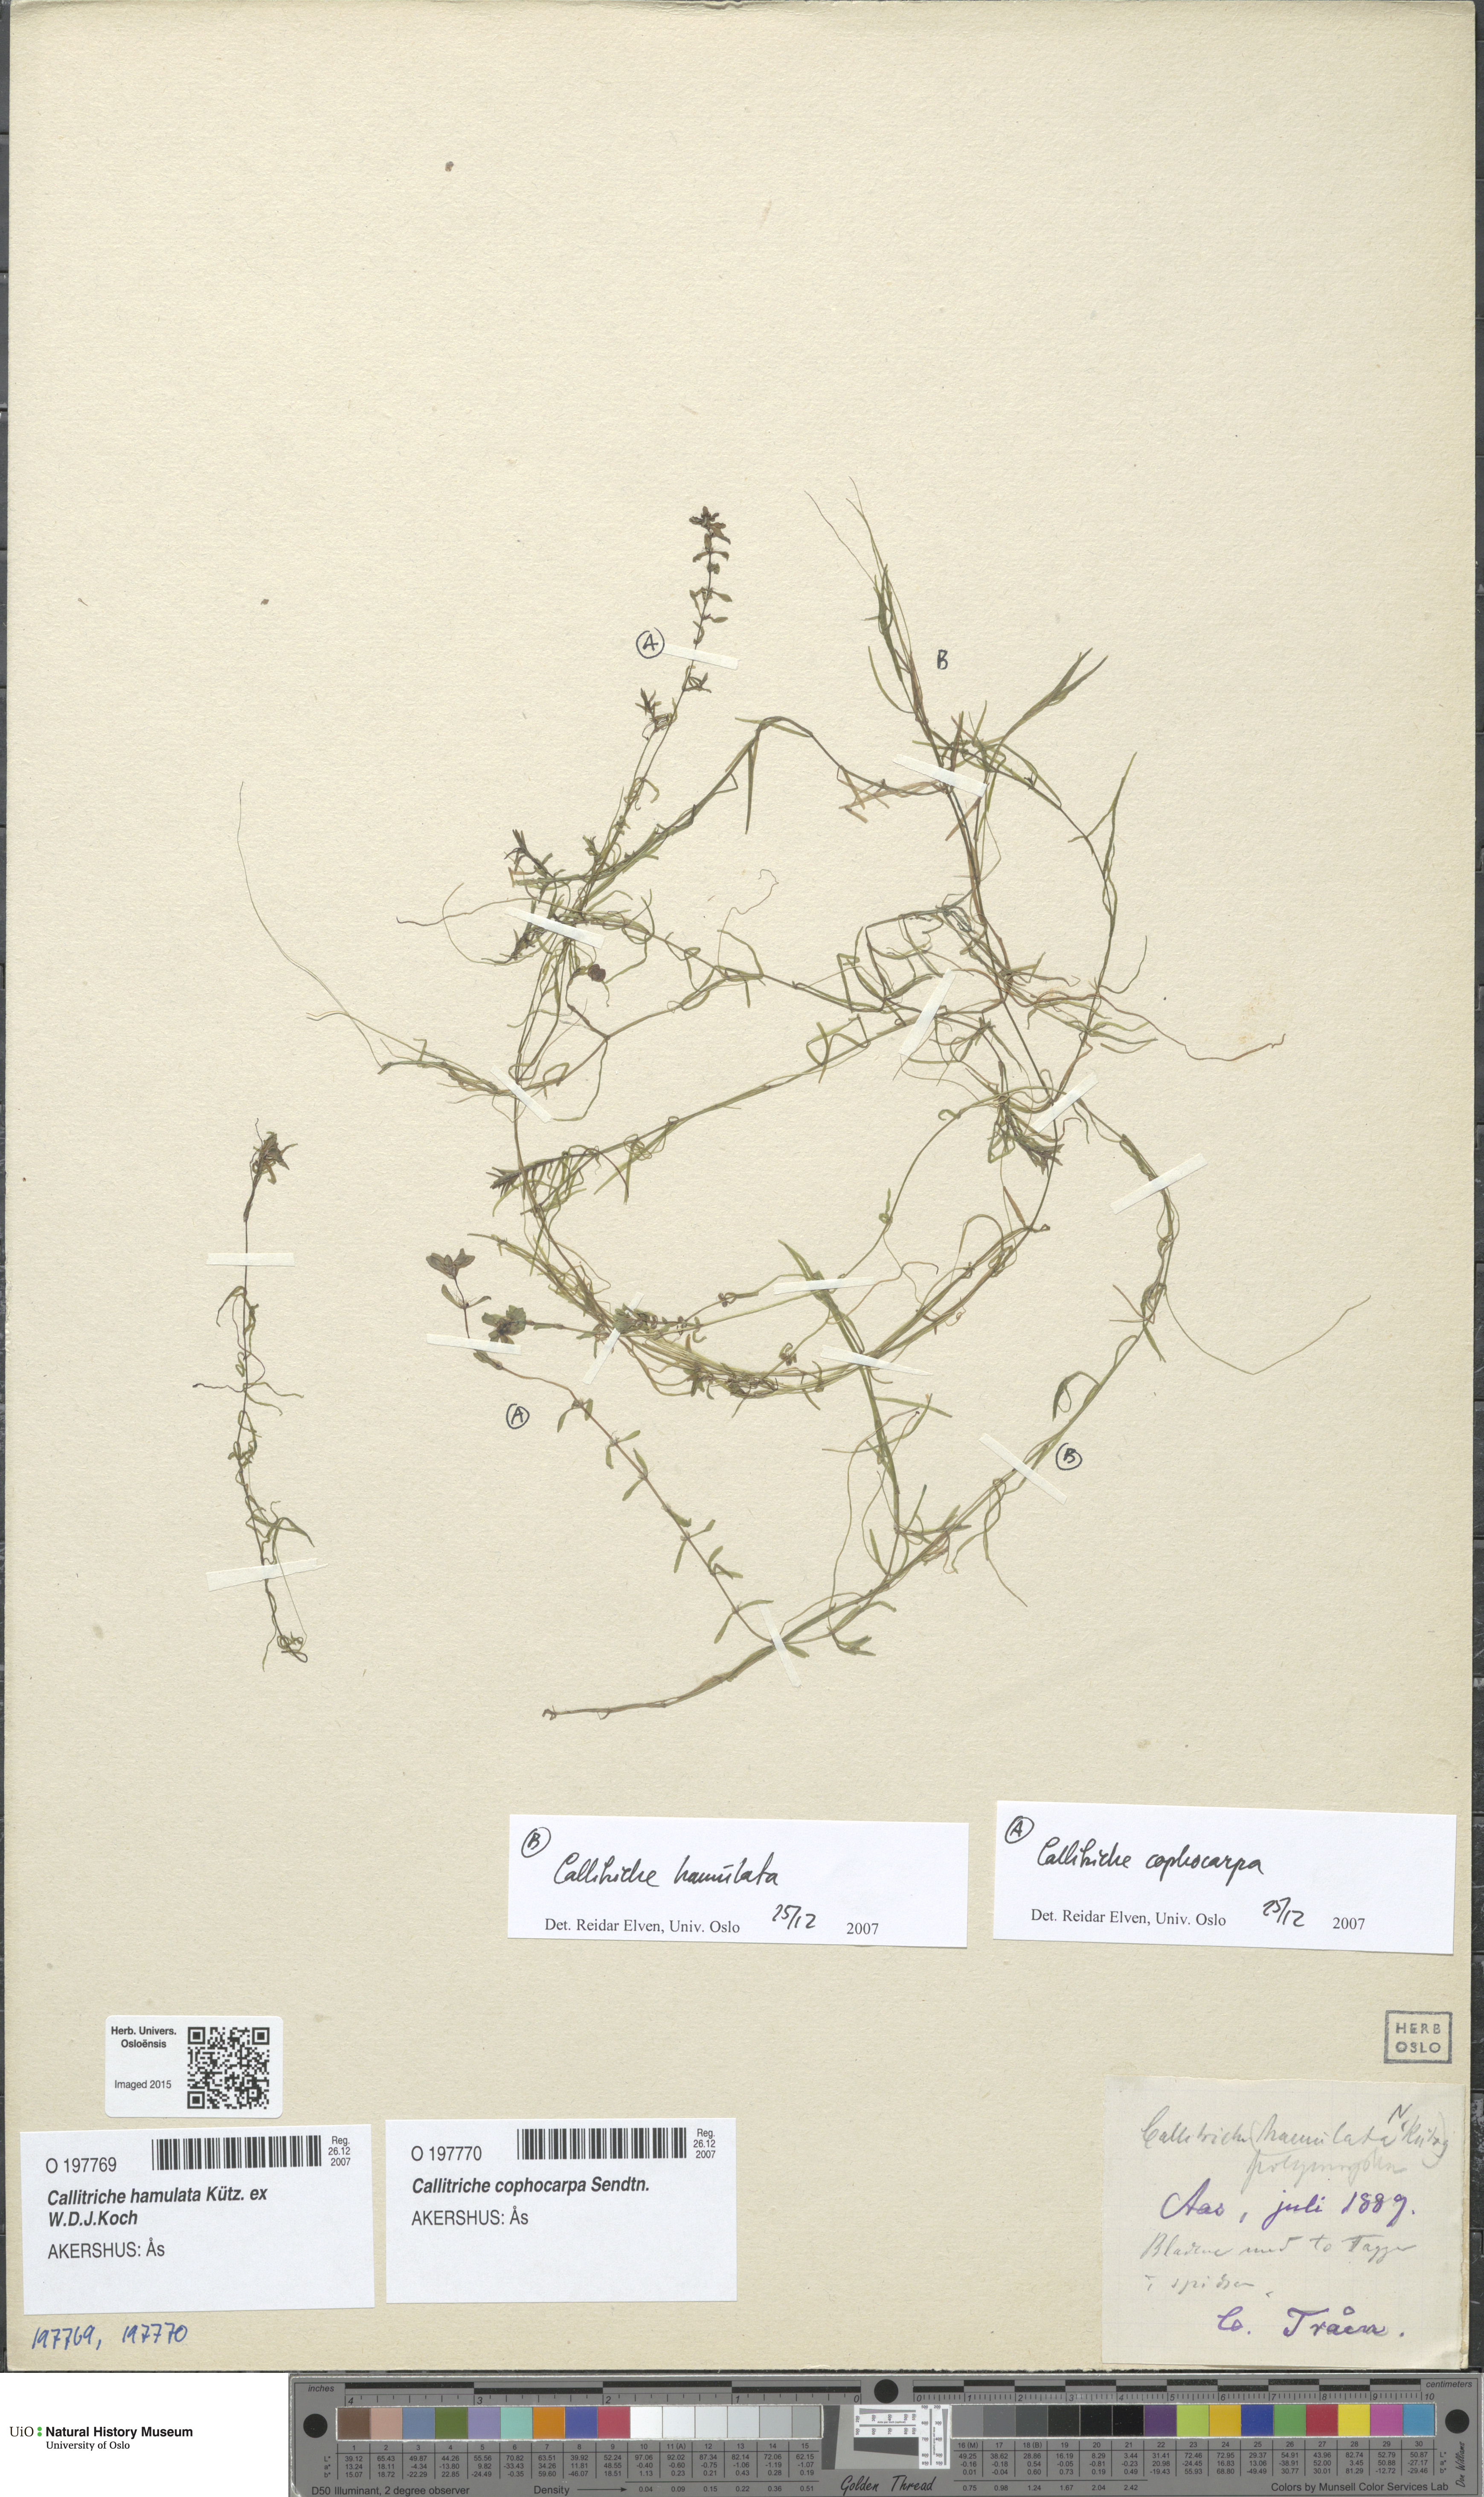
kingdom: Plantae
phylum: Tracheophyta
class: Magnoliopsida
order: Lamiales
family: Plantaginaceae
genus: Callitriche
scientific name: Callitriche hamulata
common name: Intermediate water-starwort
